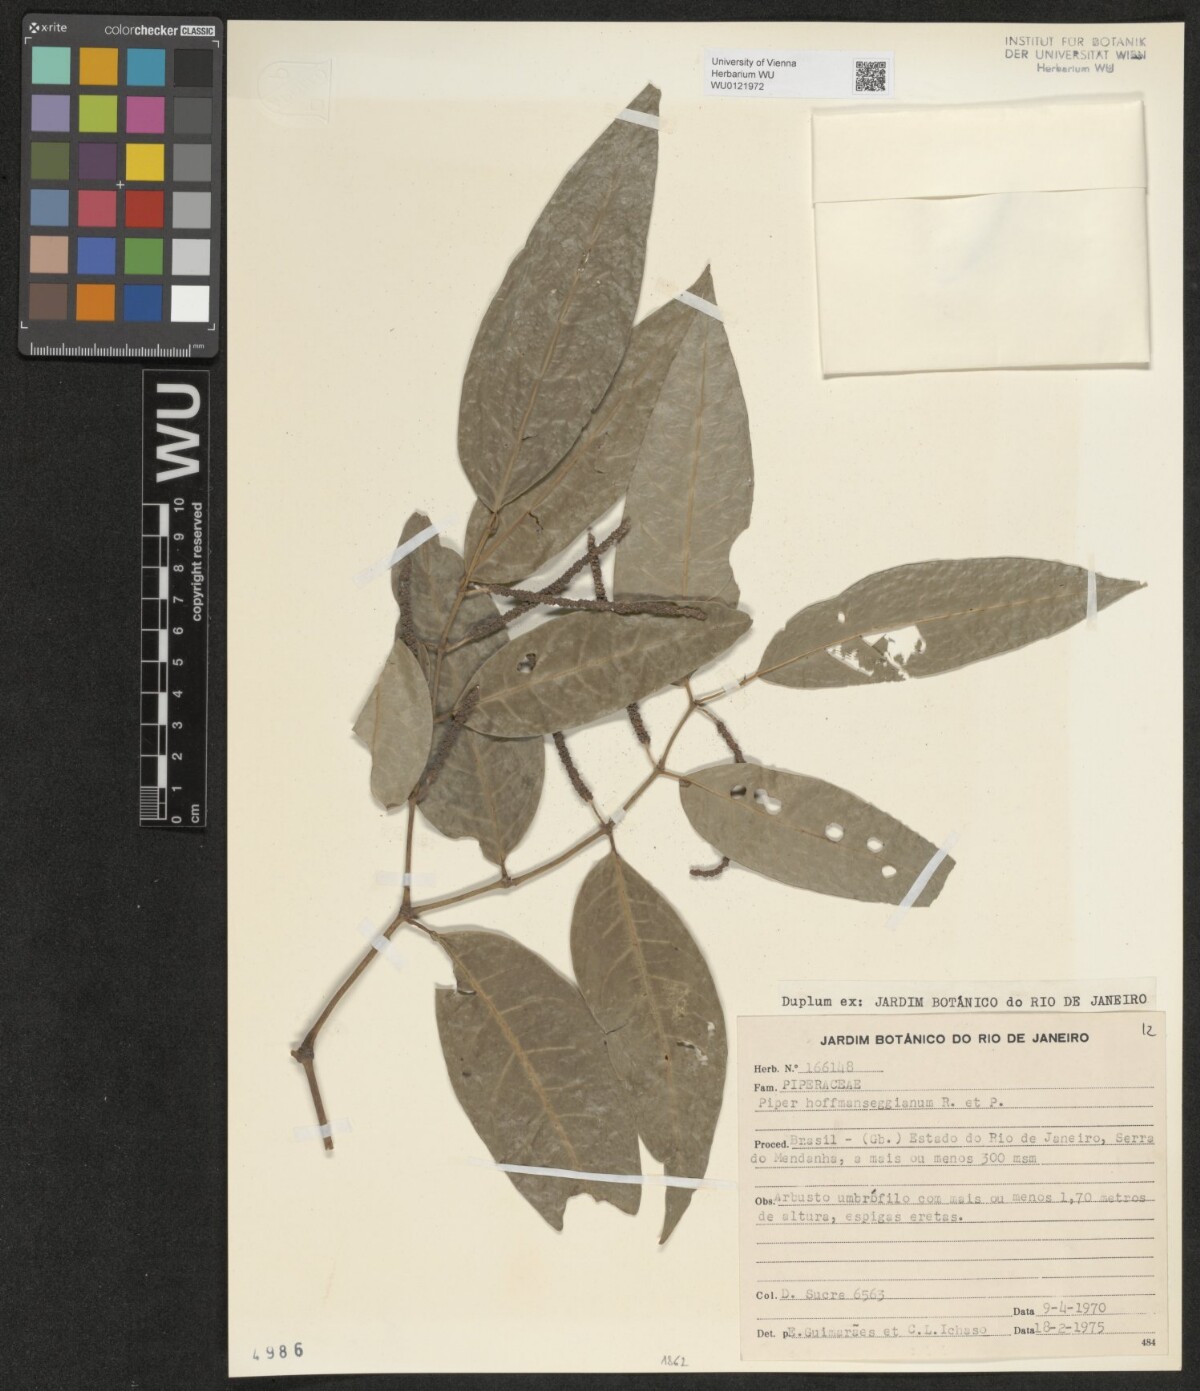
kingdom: Plantae
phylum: Tracheophyta
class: Magnoliopsida
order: Piperales
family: Piperaceae
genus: Piper
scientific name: Piper hoffmannseggianum
